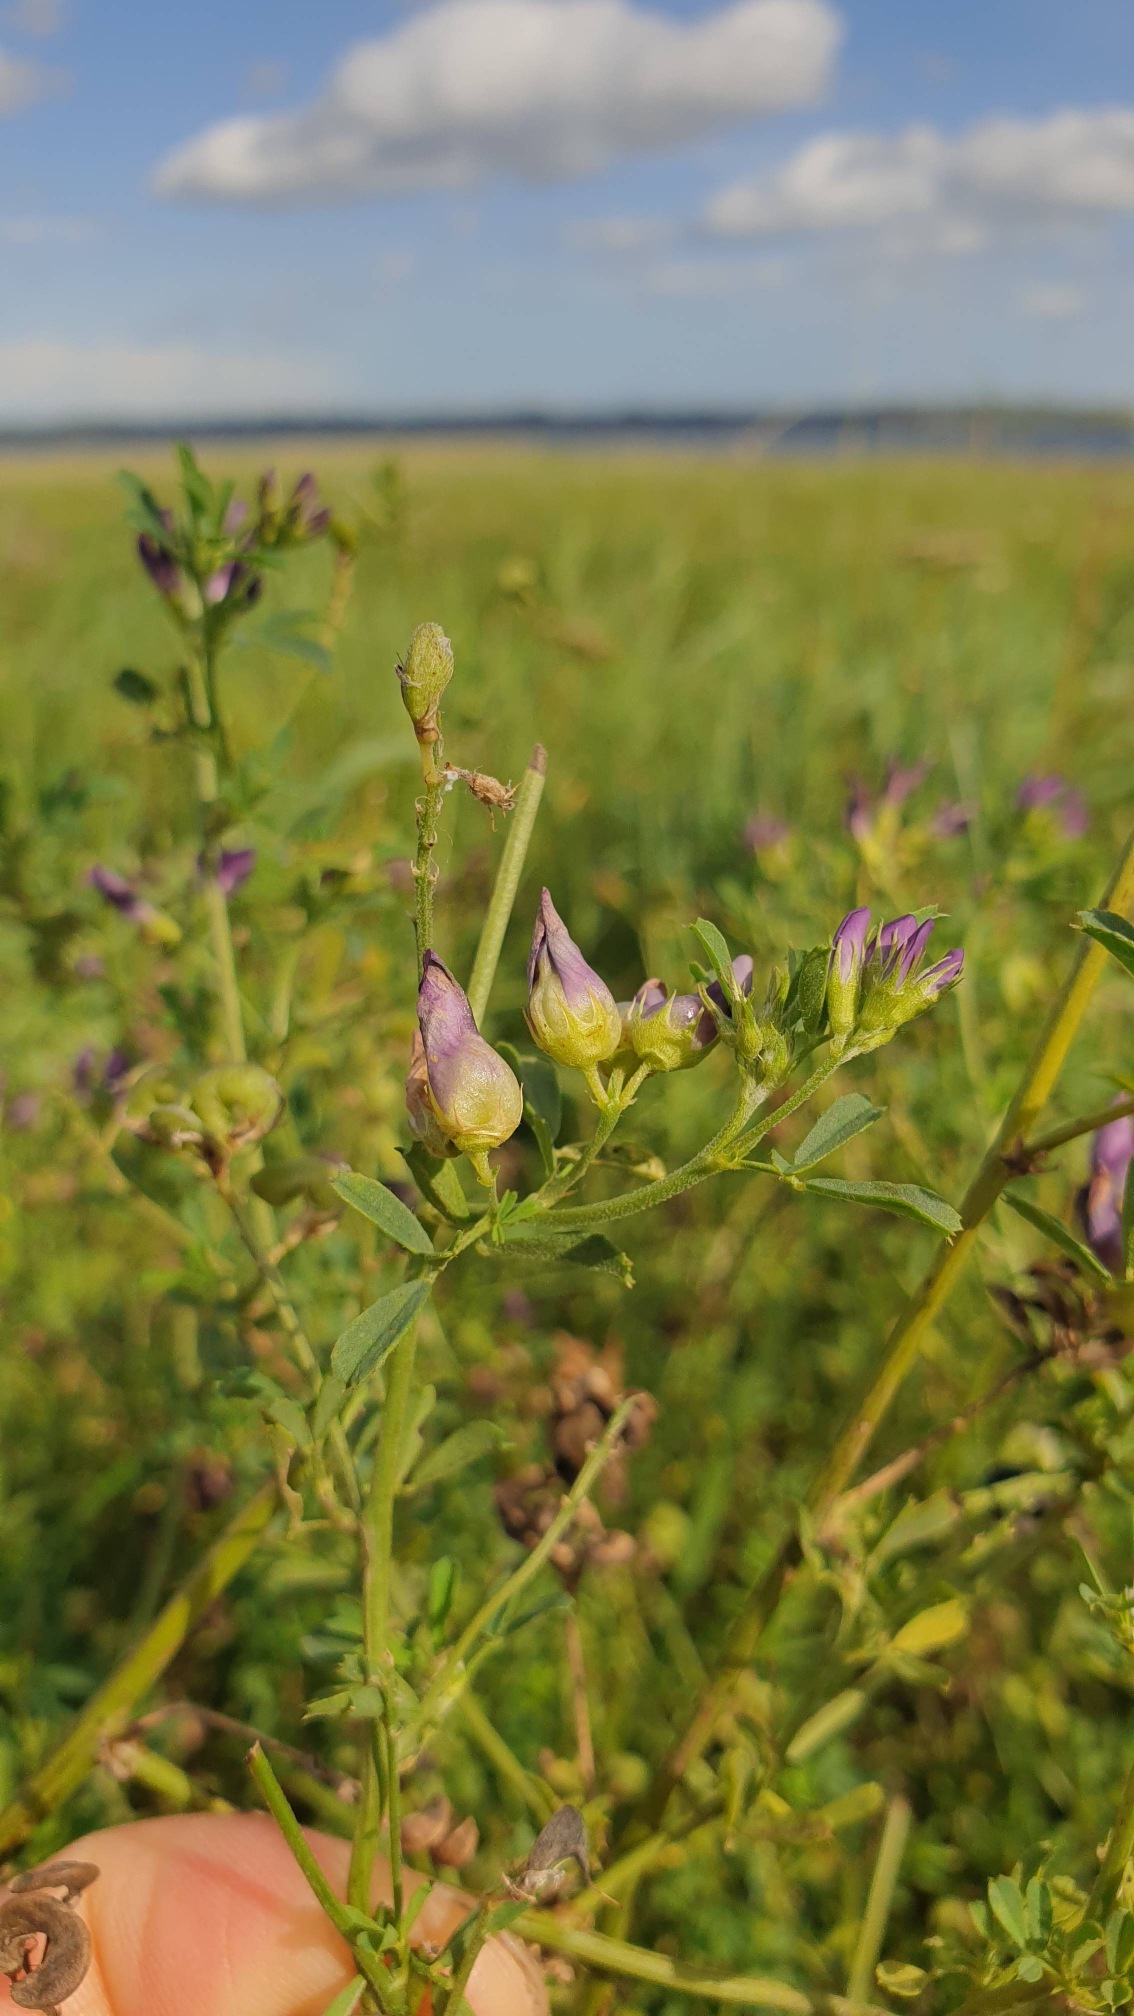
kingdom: Animalia
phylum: Arthropoda
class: Insecta
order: Diptera
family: Cecidomyiidae
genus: Contarinia
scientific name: Contarinia medicaginis
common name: Lucerneblomstgalmyg
